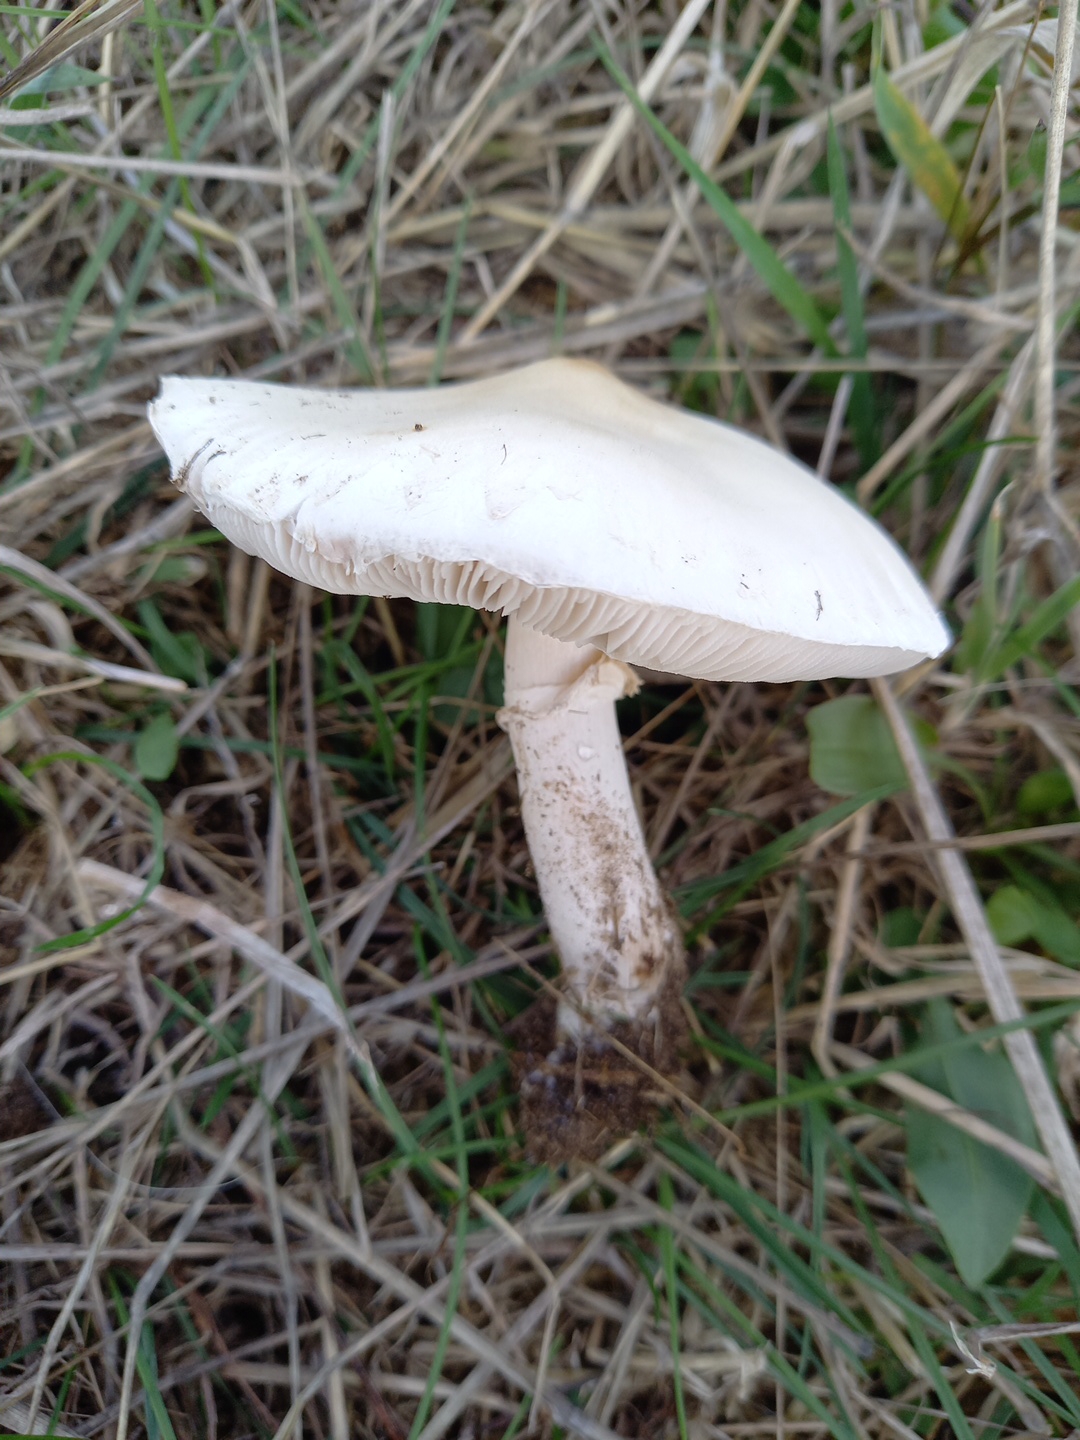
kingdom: Fungi
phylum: Basidiomycota
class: Agaricomycetes
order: Agaricales
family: Agaricaceae
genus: Leucoagaricus
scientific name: Leucoagaricus leucothites
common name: rosabladet silkehat
